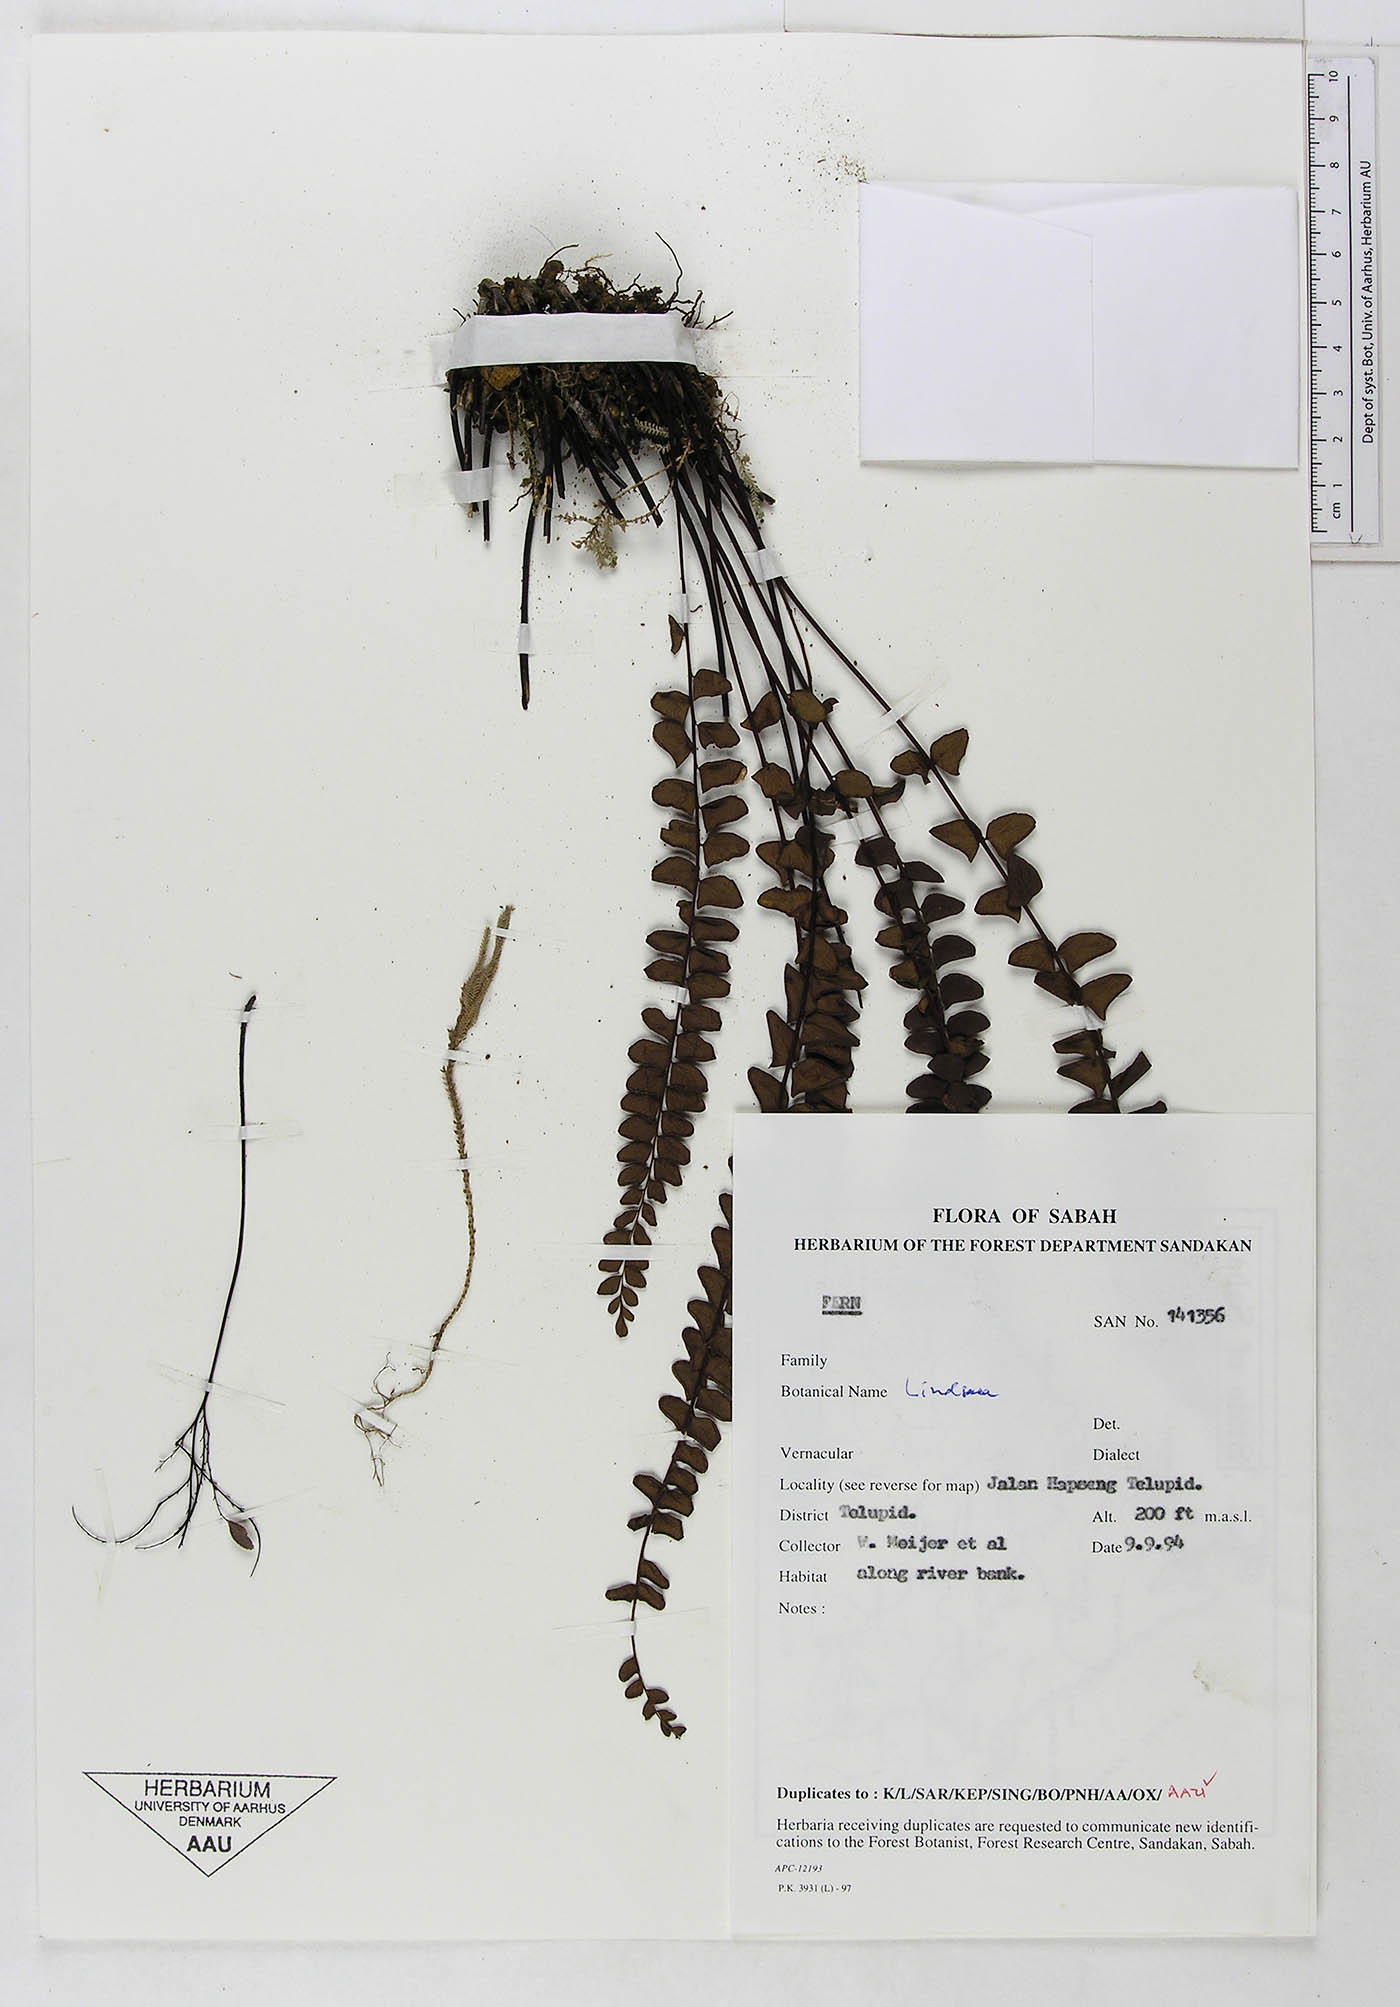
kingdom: Plantae
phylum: Tracheophyta
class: Polypodiopsida
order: Polypodiales
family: Dennstaedtiaceae
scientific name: Dennstaedtiaceae
